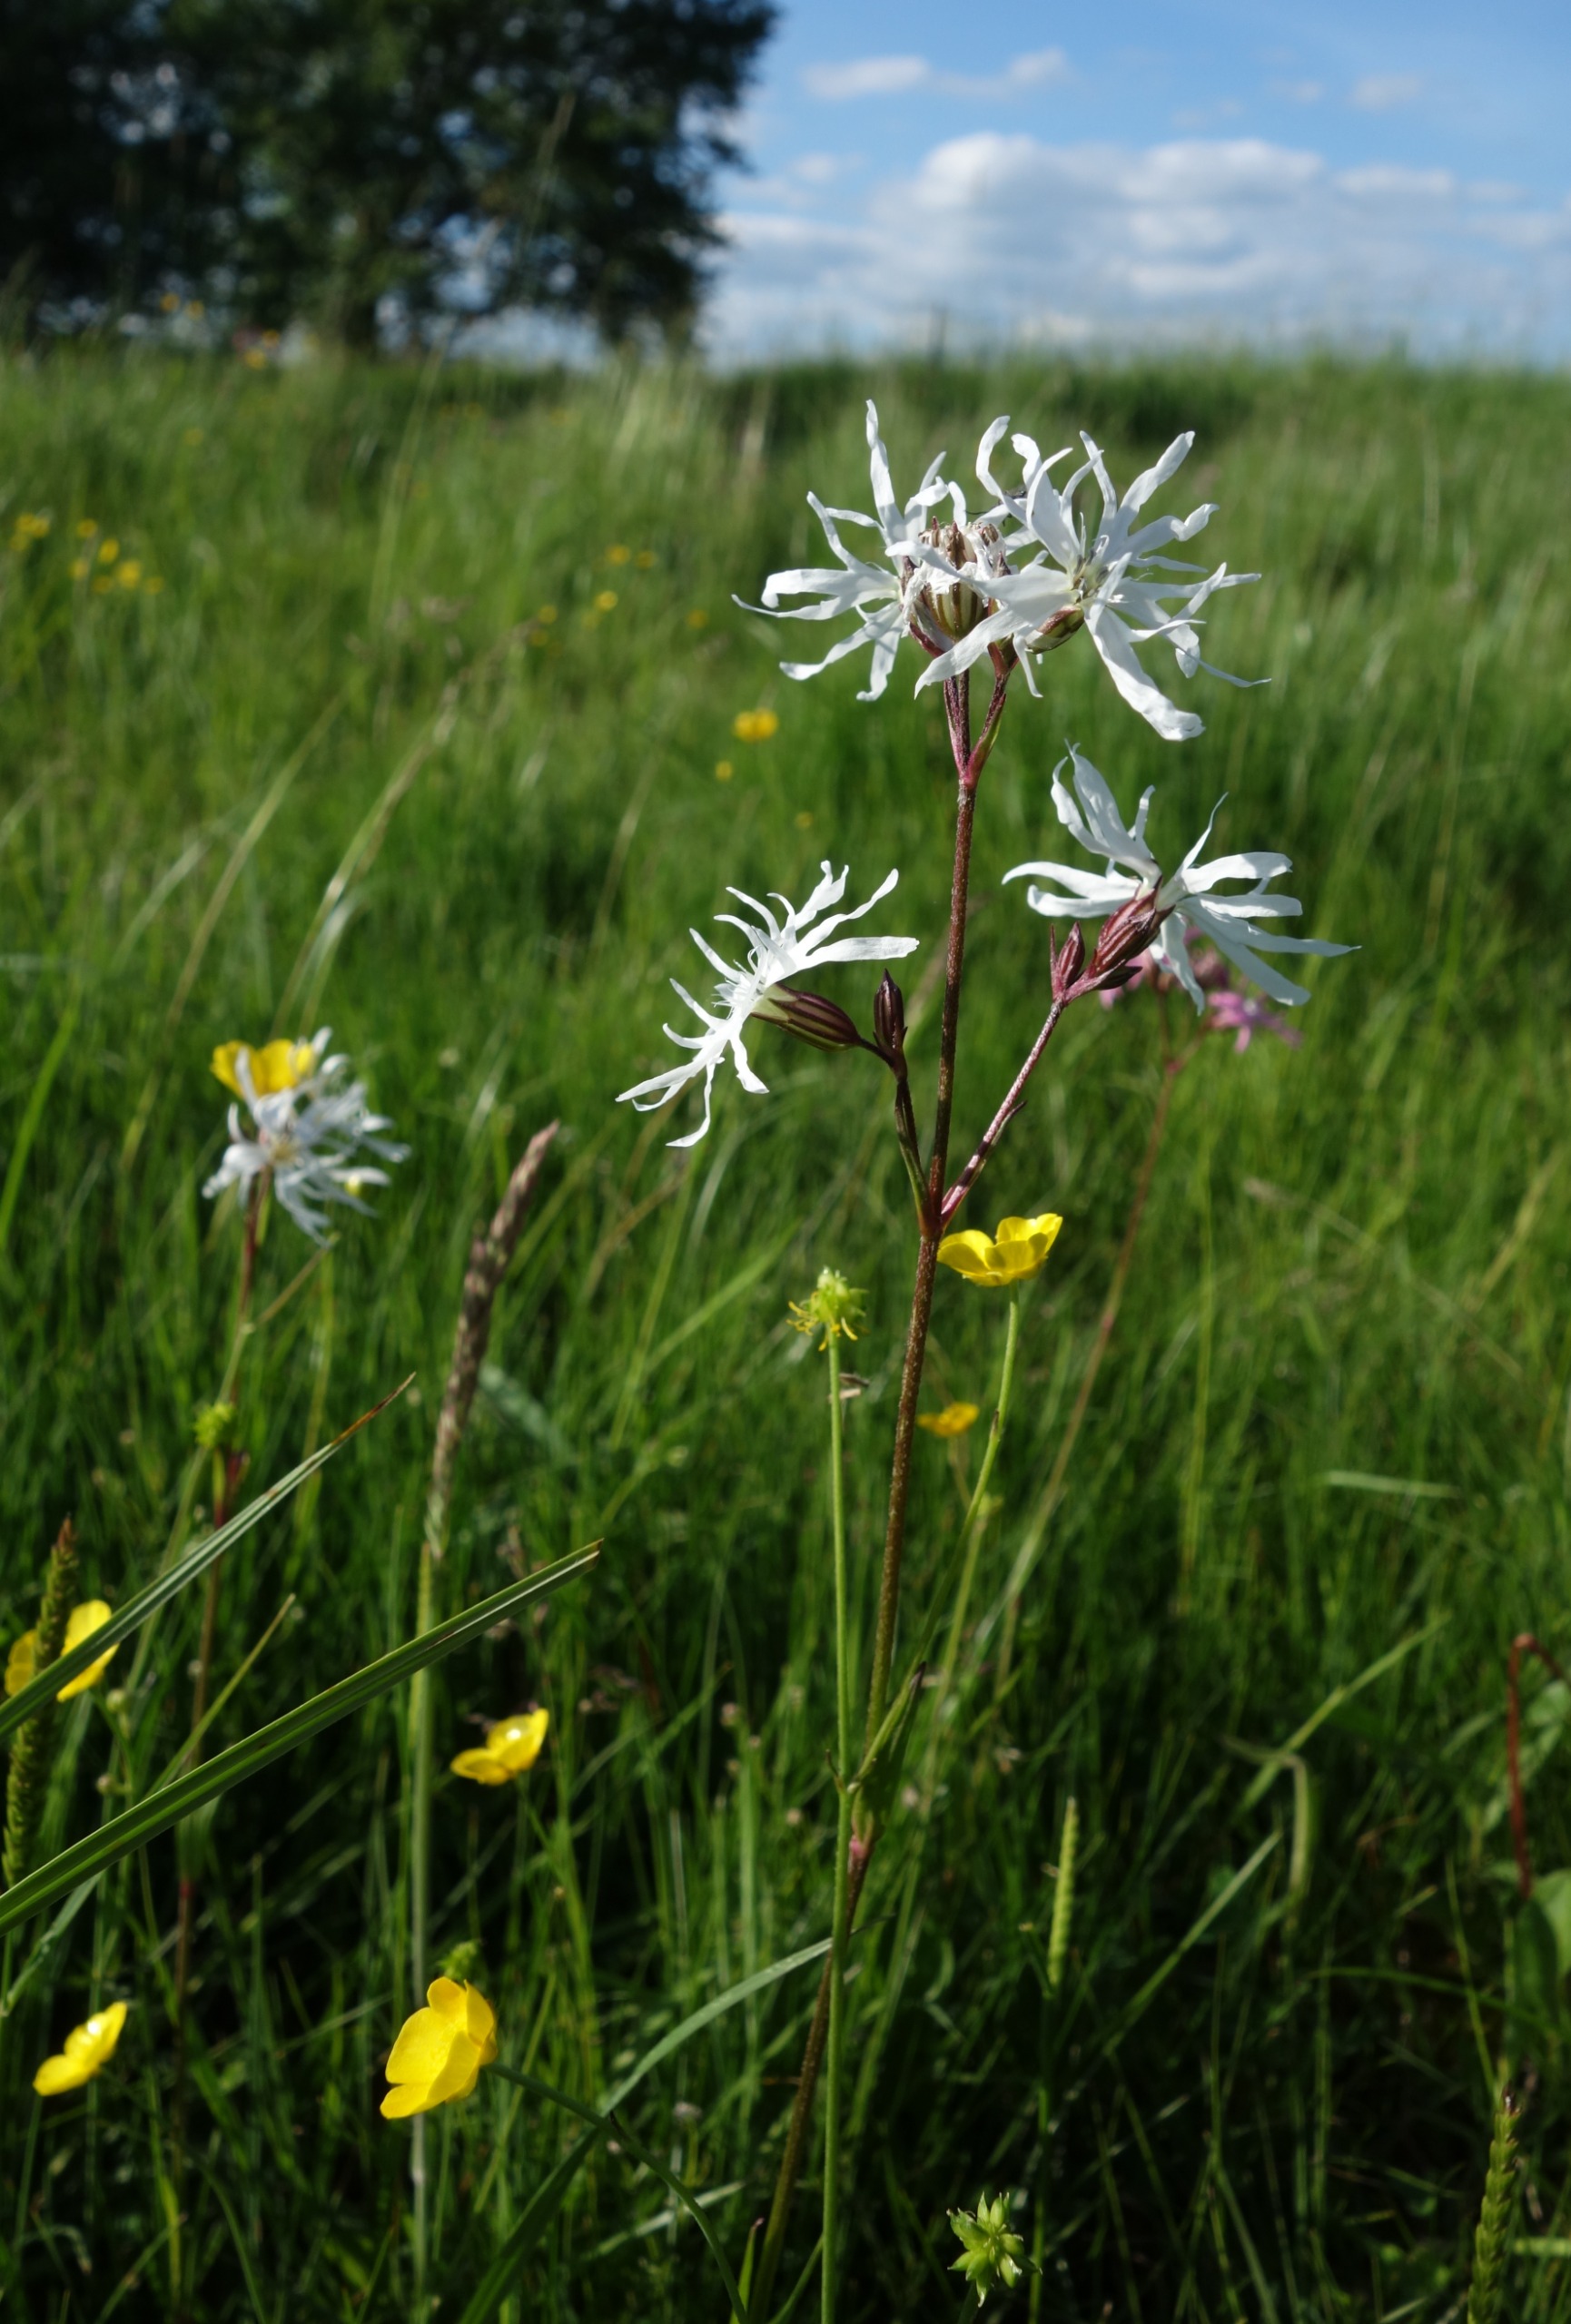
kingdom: Plantae
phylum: Tracheophyta
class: Magnoliopsida
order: Caryophyllales
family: Caryophyllaceae
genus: Silene
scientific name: Silene flos-cuculi
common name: Trævlekrone
